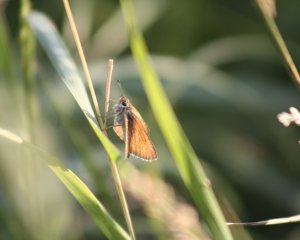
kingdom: Animalia
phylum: Arthropoda
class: Insecta
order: Lepidoptera
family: Hesperiidae
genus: Thymelicus
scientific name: Thymelicus lineola
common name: European Skipper
